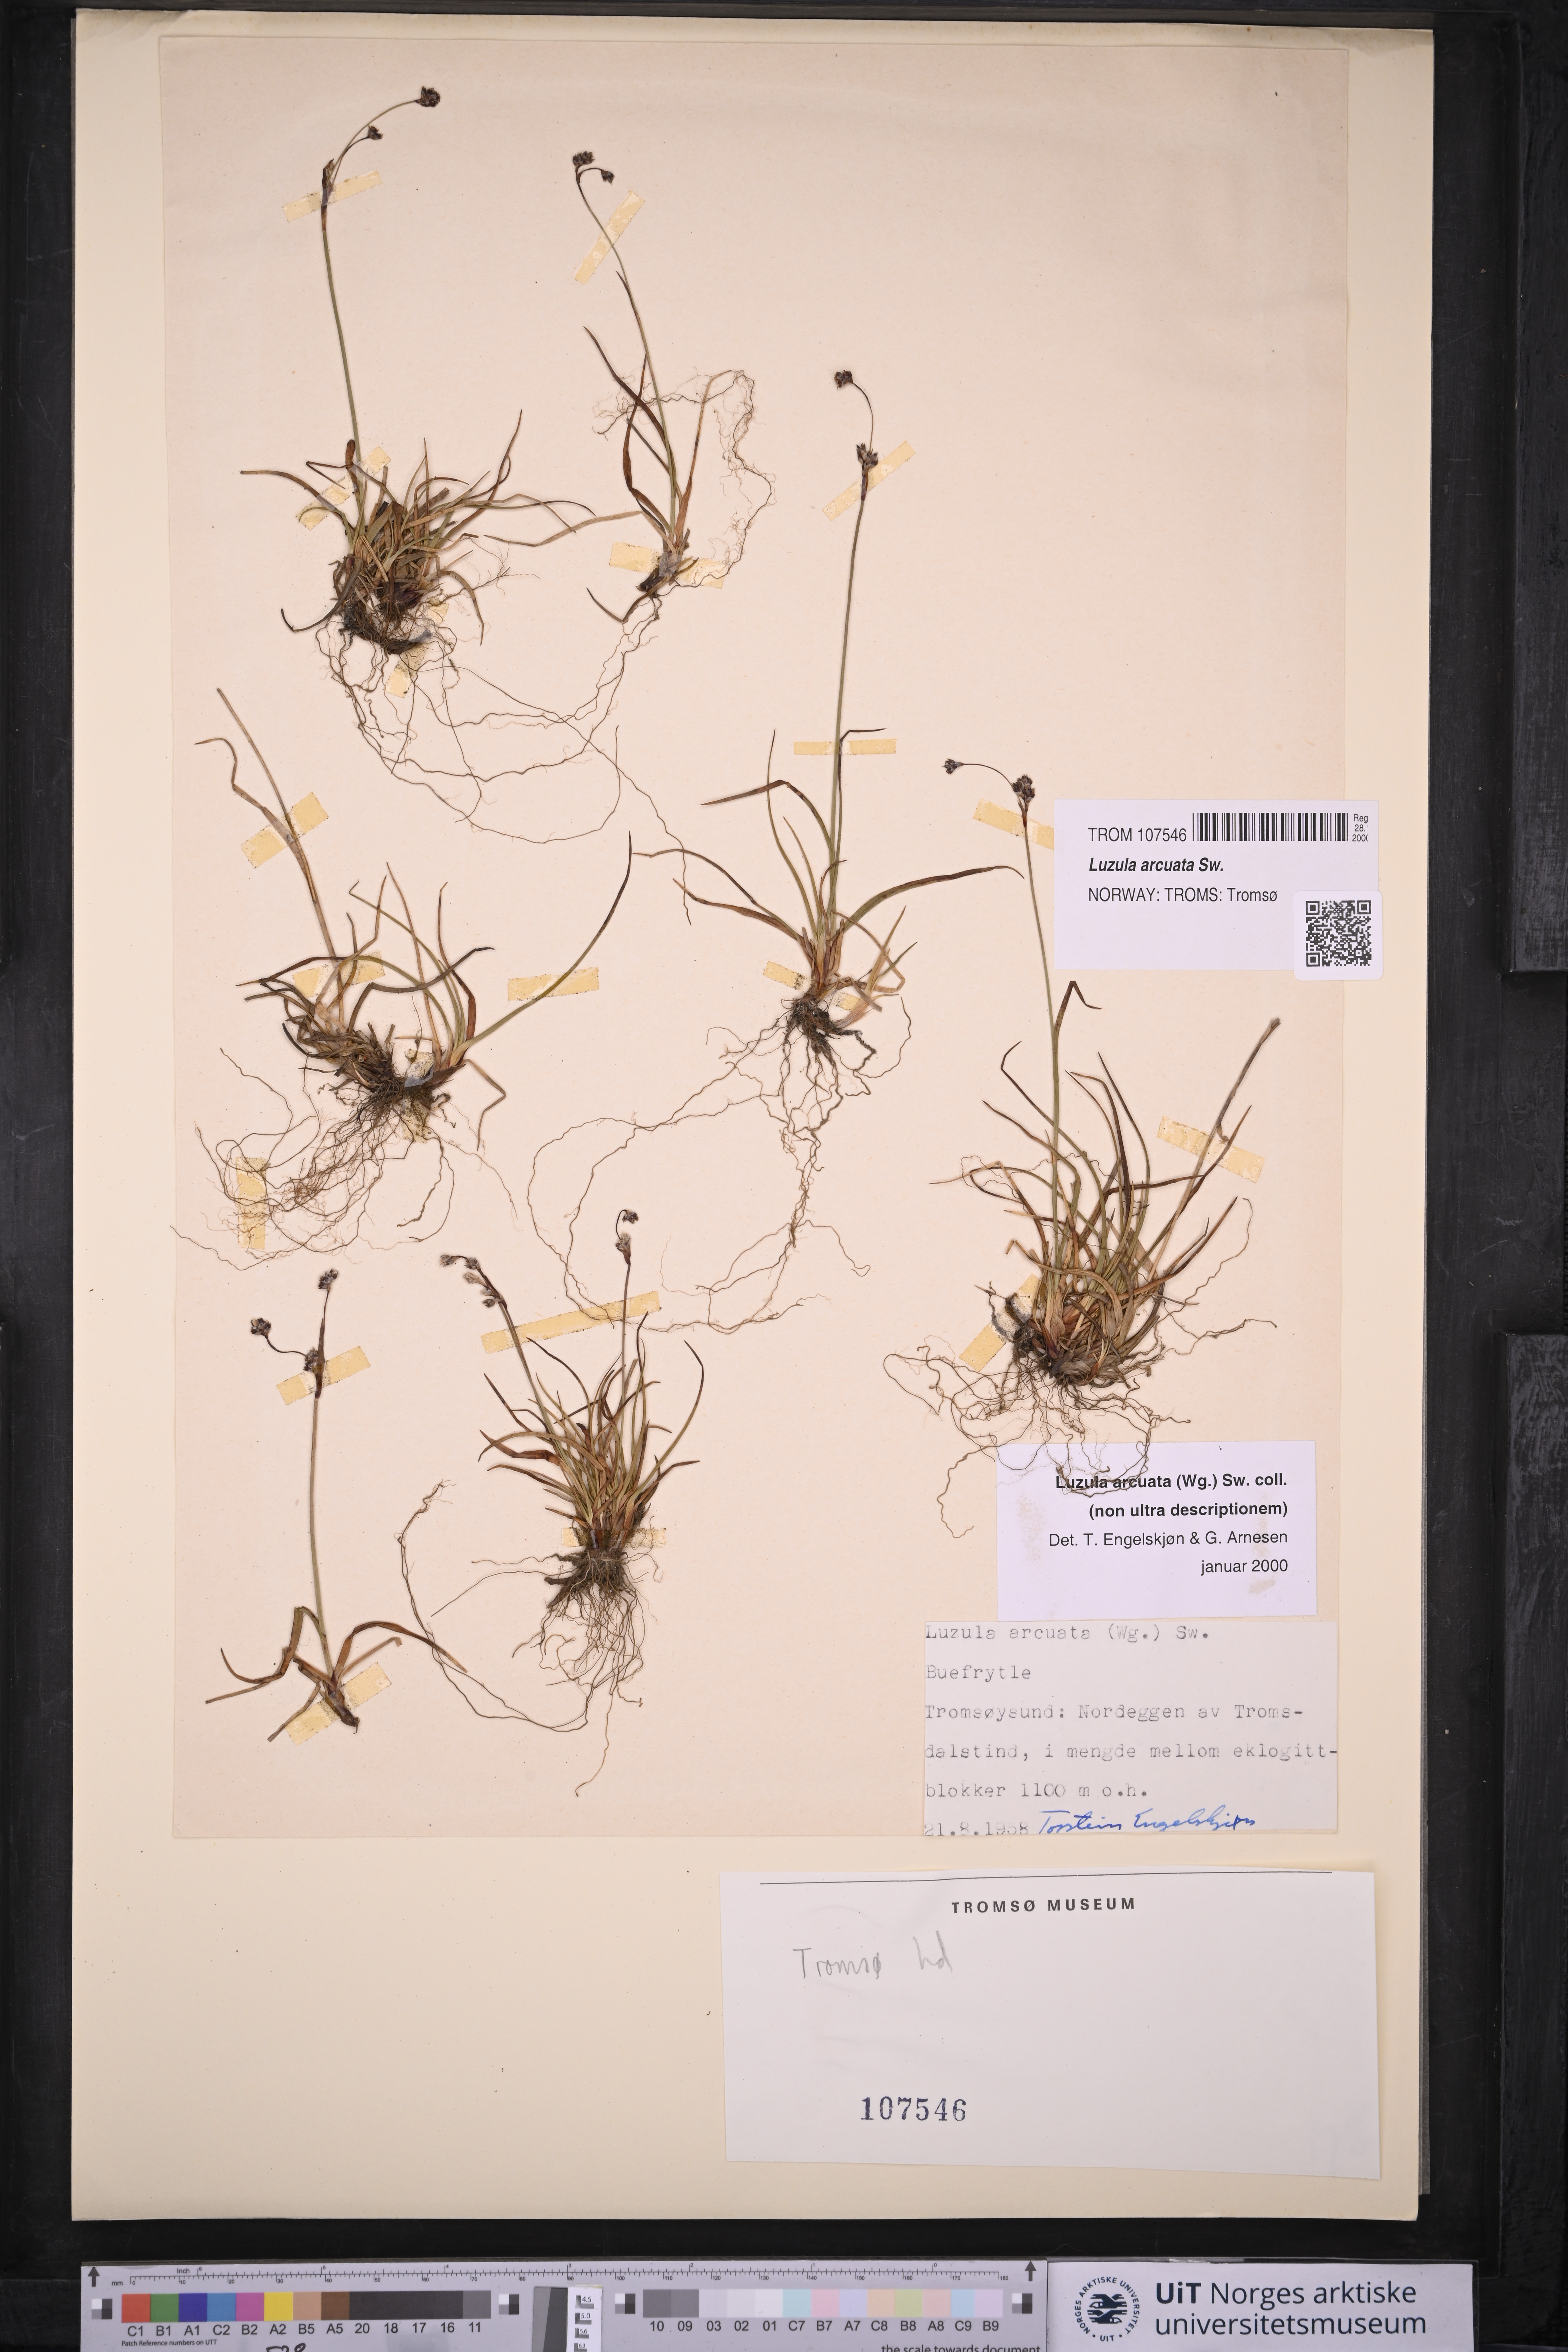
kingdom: Plantae
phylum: Tracheophyta
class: Liliopsida
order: Poales
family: Juncaceae
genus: Luzula
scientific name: Luzula arcuata
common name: Curved wood-rush
